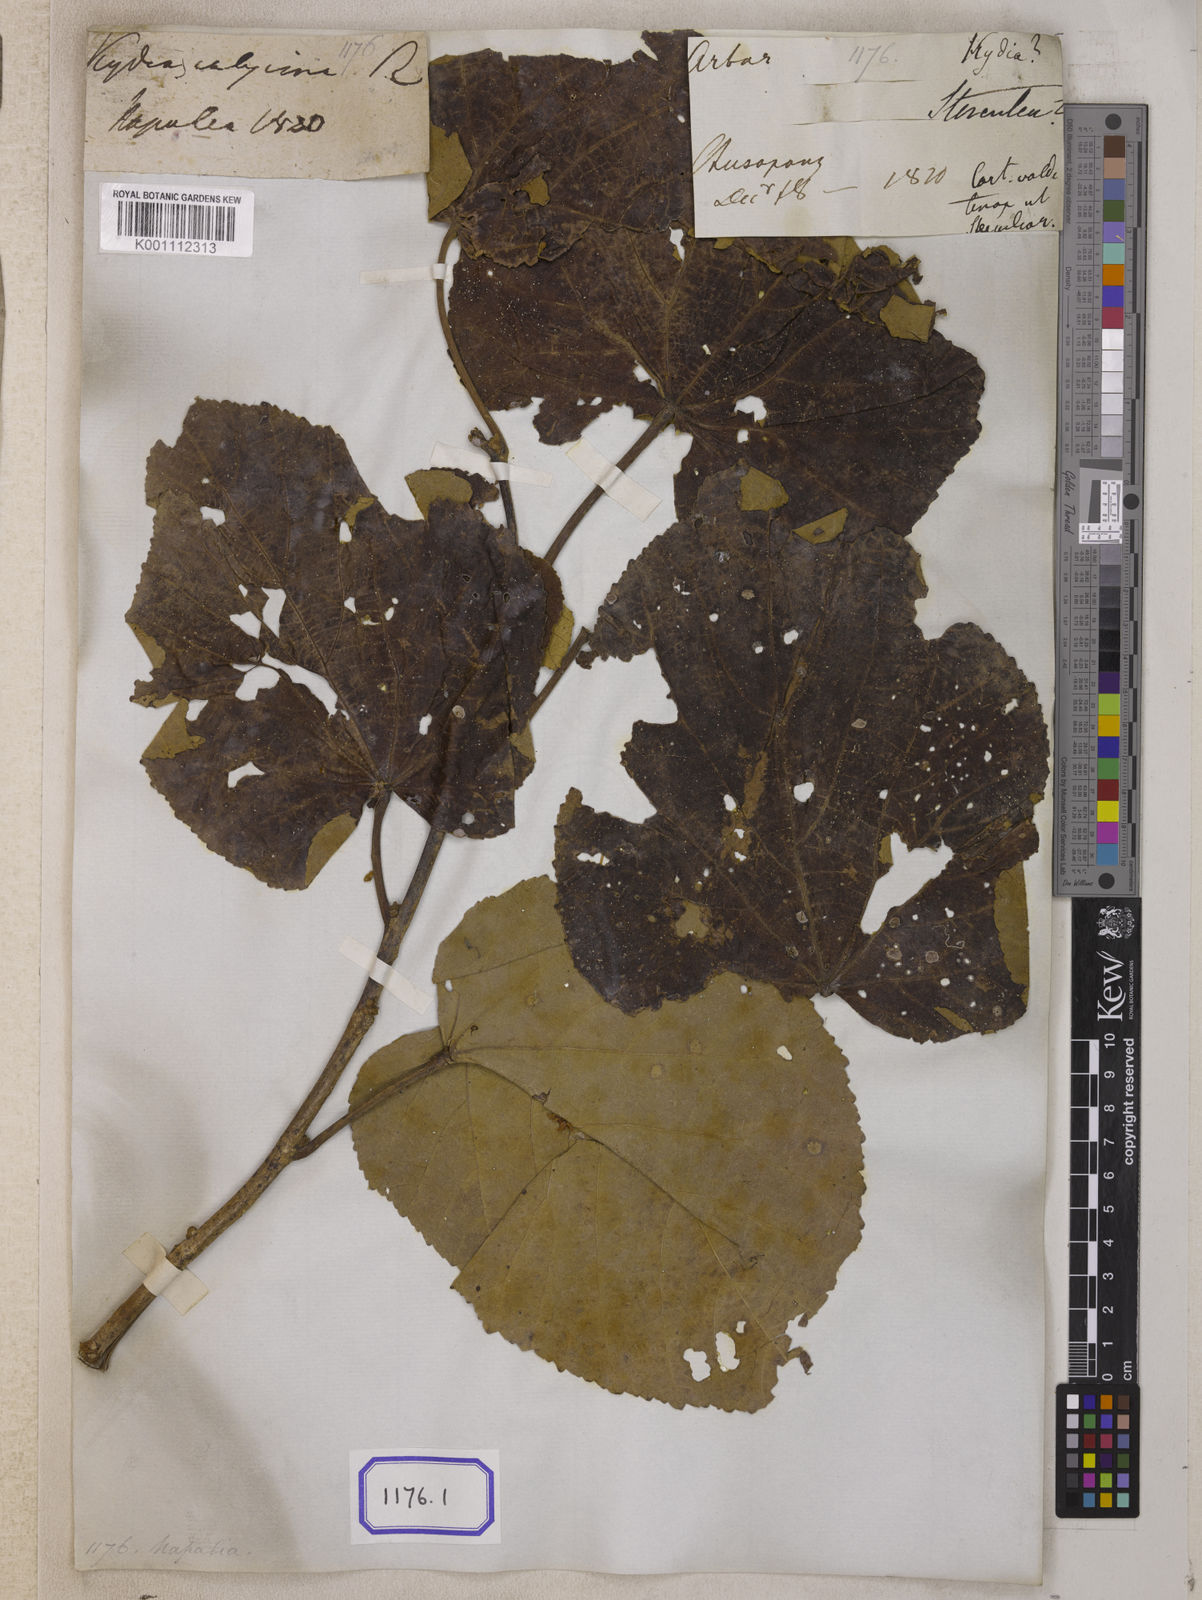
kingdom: Plantae
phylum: Tracheophyta
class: Magnoliopsida
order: Malvales
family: Malvaceae
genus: Kydia
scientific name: Kydia calycina
